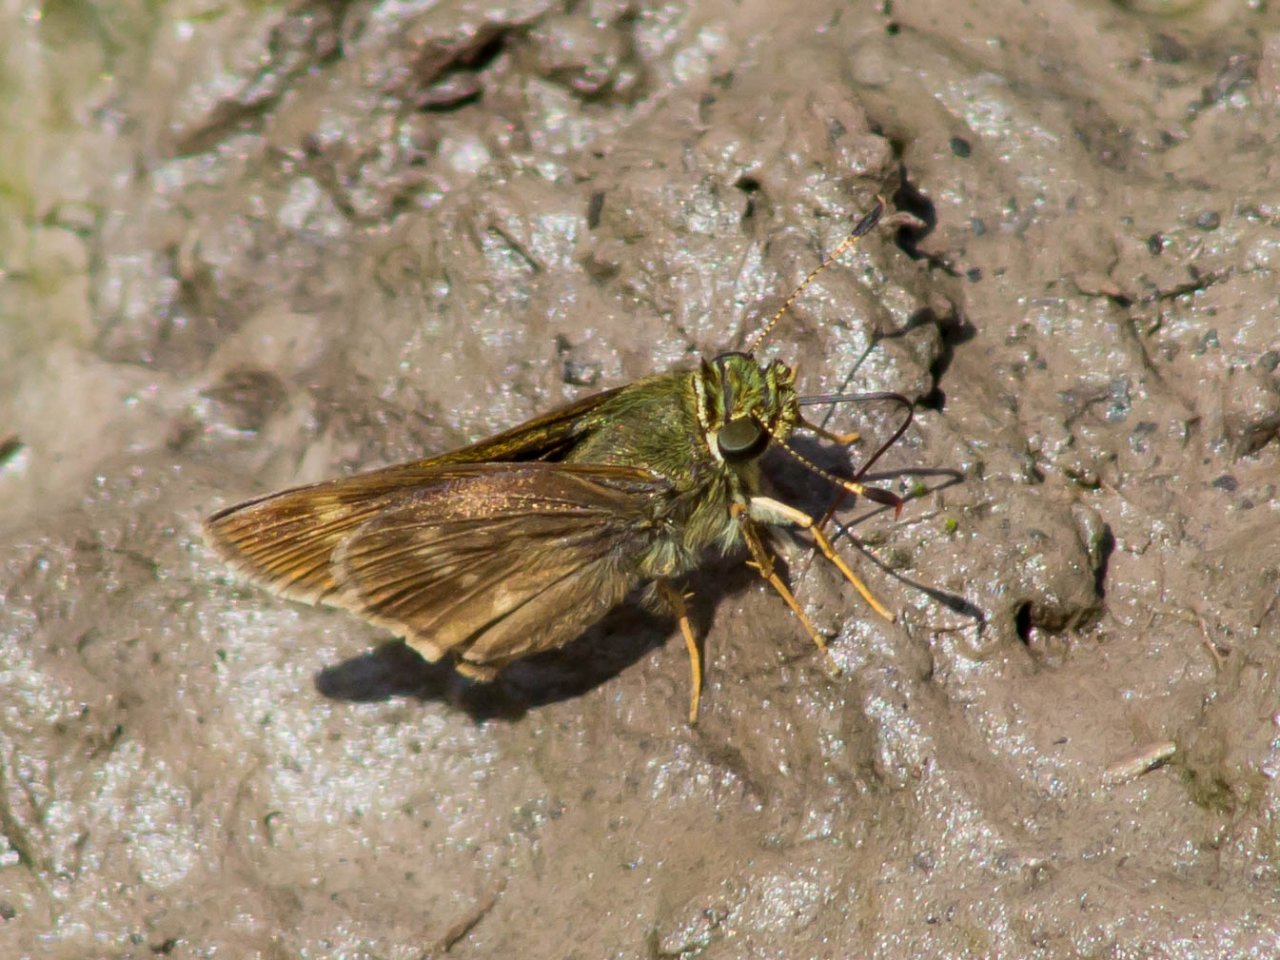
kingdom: Animalia
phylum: Arthropoda
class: Insecta
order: Lepidoptera
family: Hesperiidae
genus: Polites
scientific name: Polites egeremet
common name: Northern Broken-Dash
